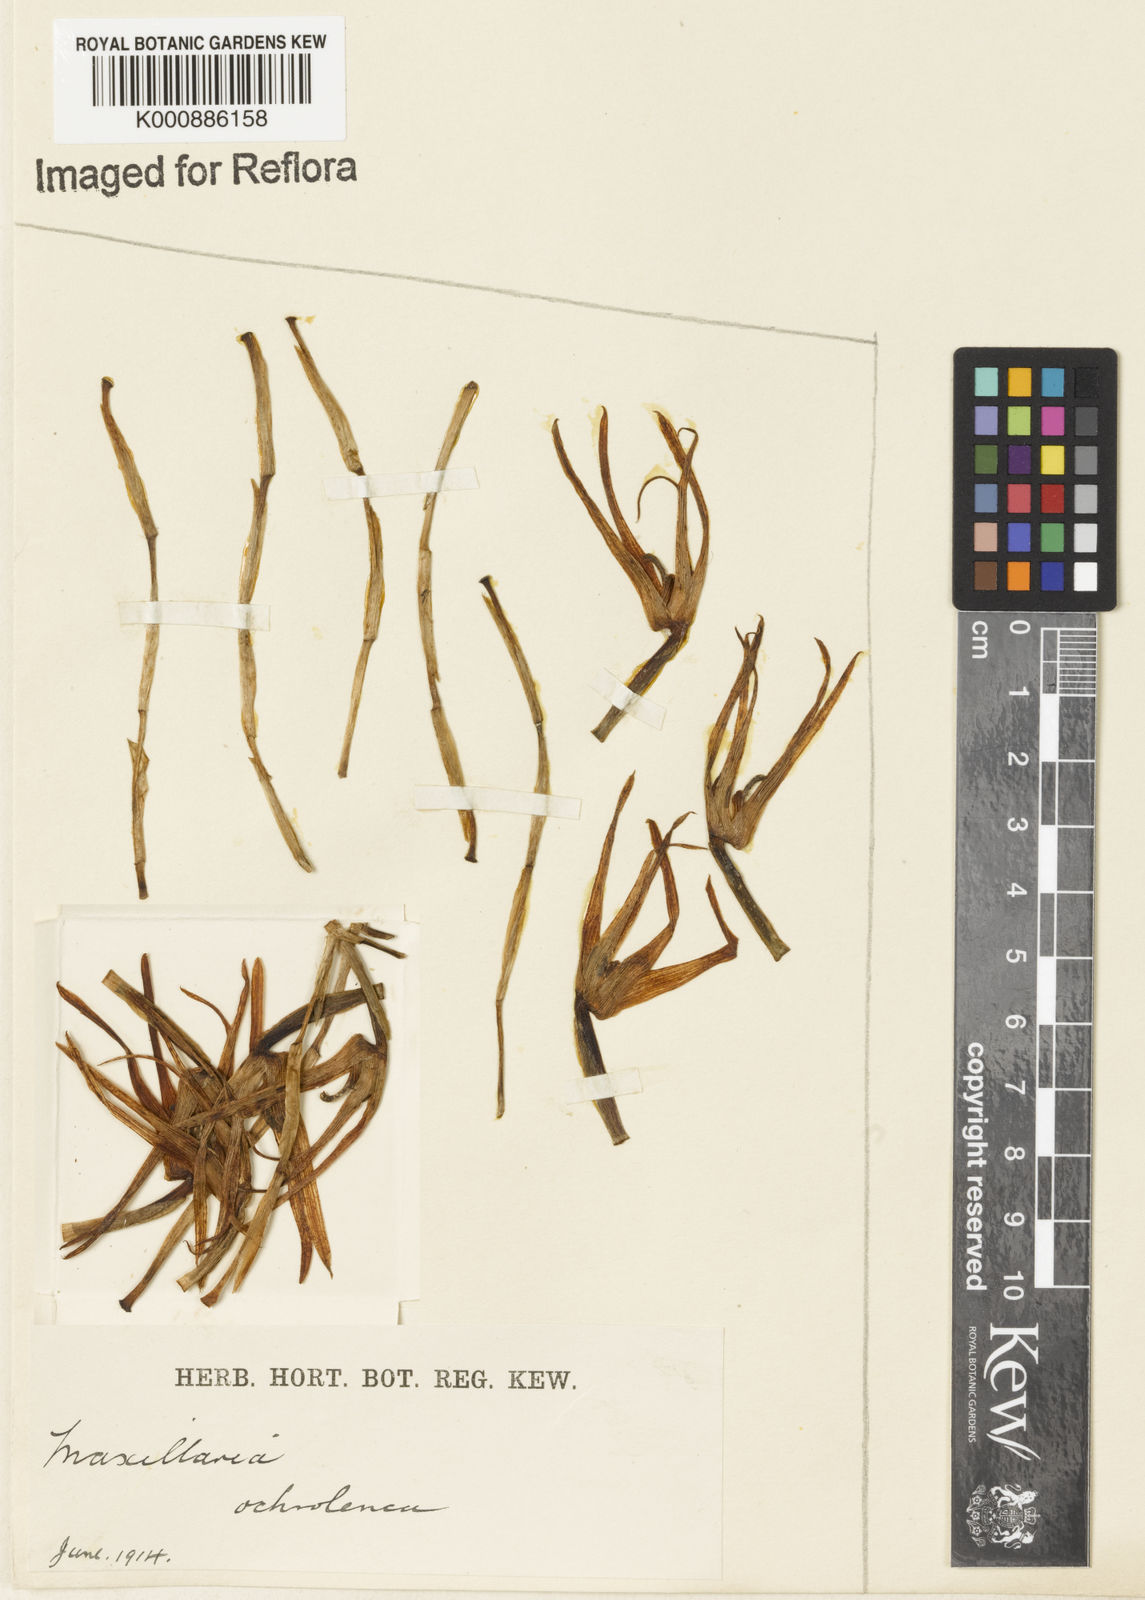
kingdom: Plantae
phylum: Tracheophyta
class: Liliopsida
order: Asparagales
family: Orchidaceae
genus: Maxillaria
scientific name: Maxillaria ochroleuca
